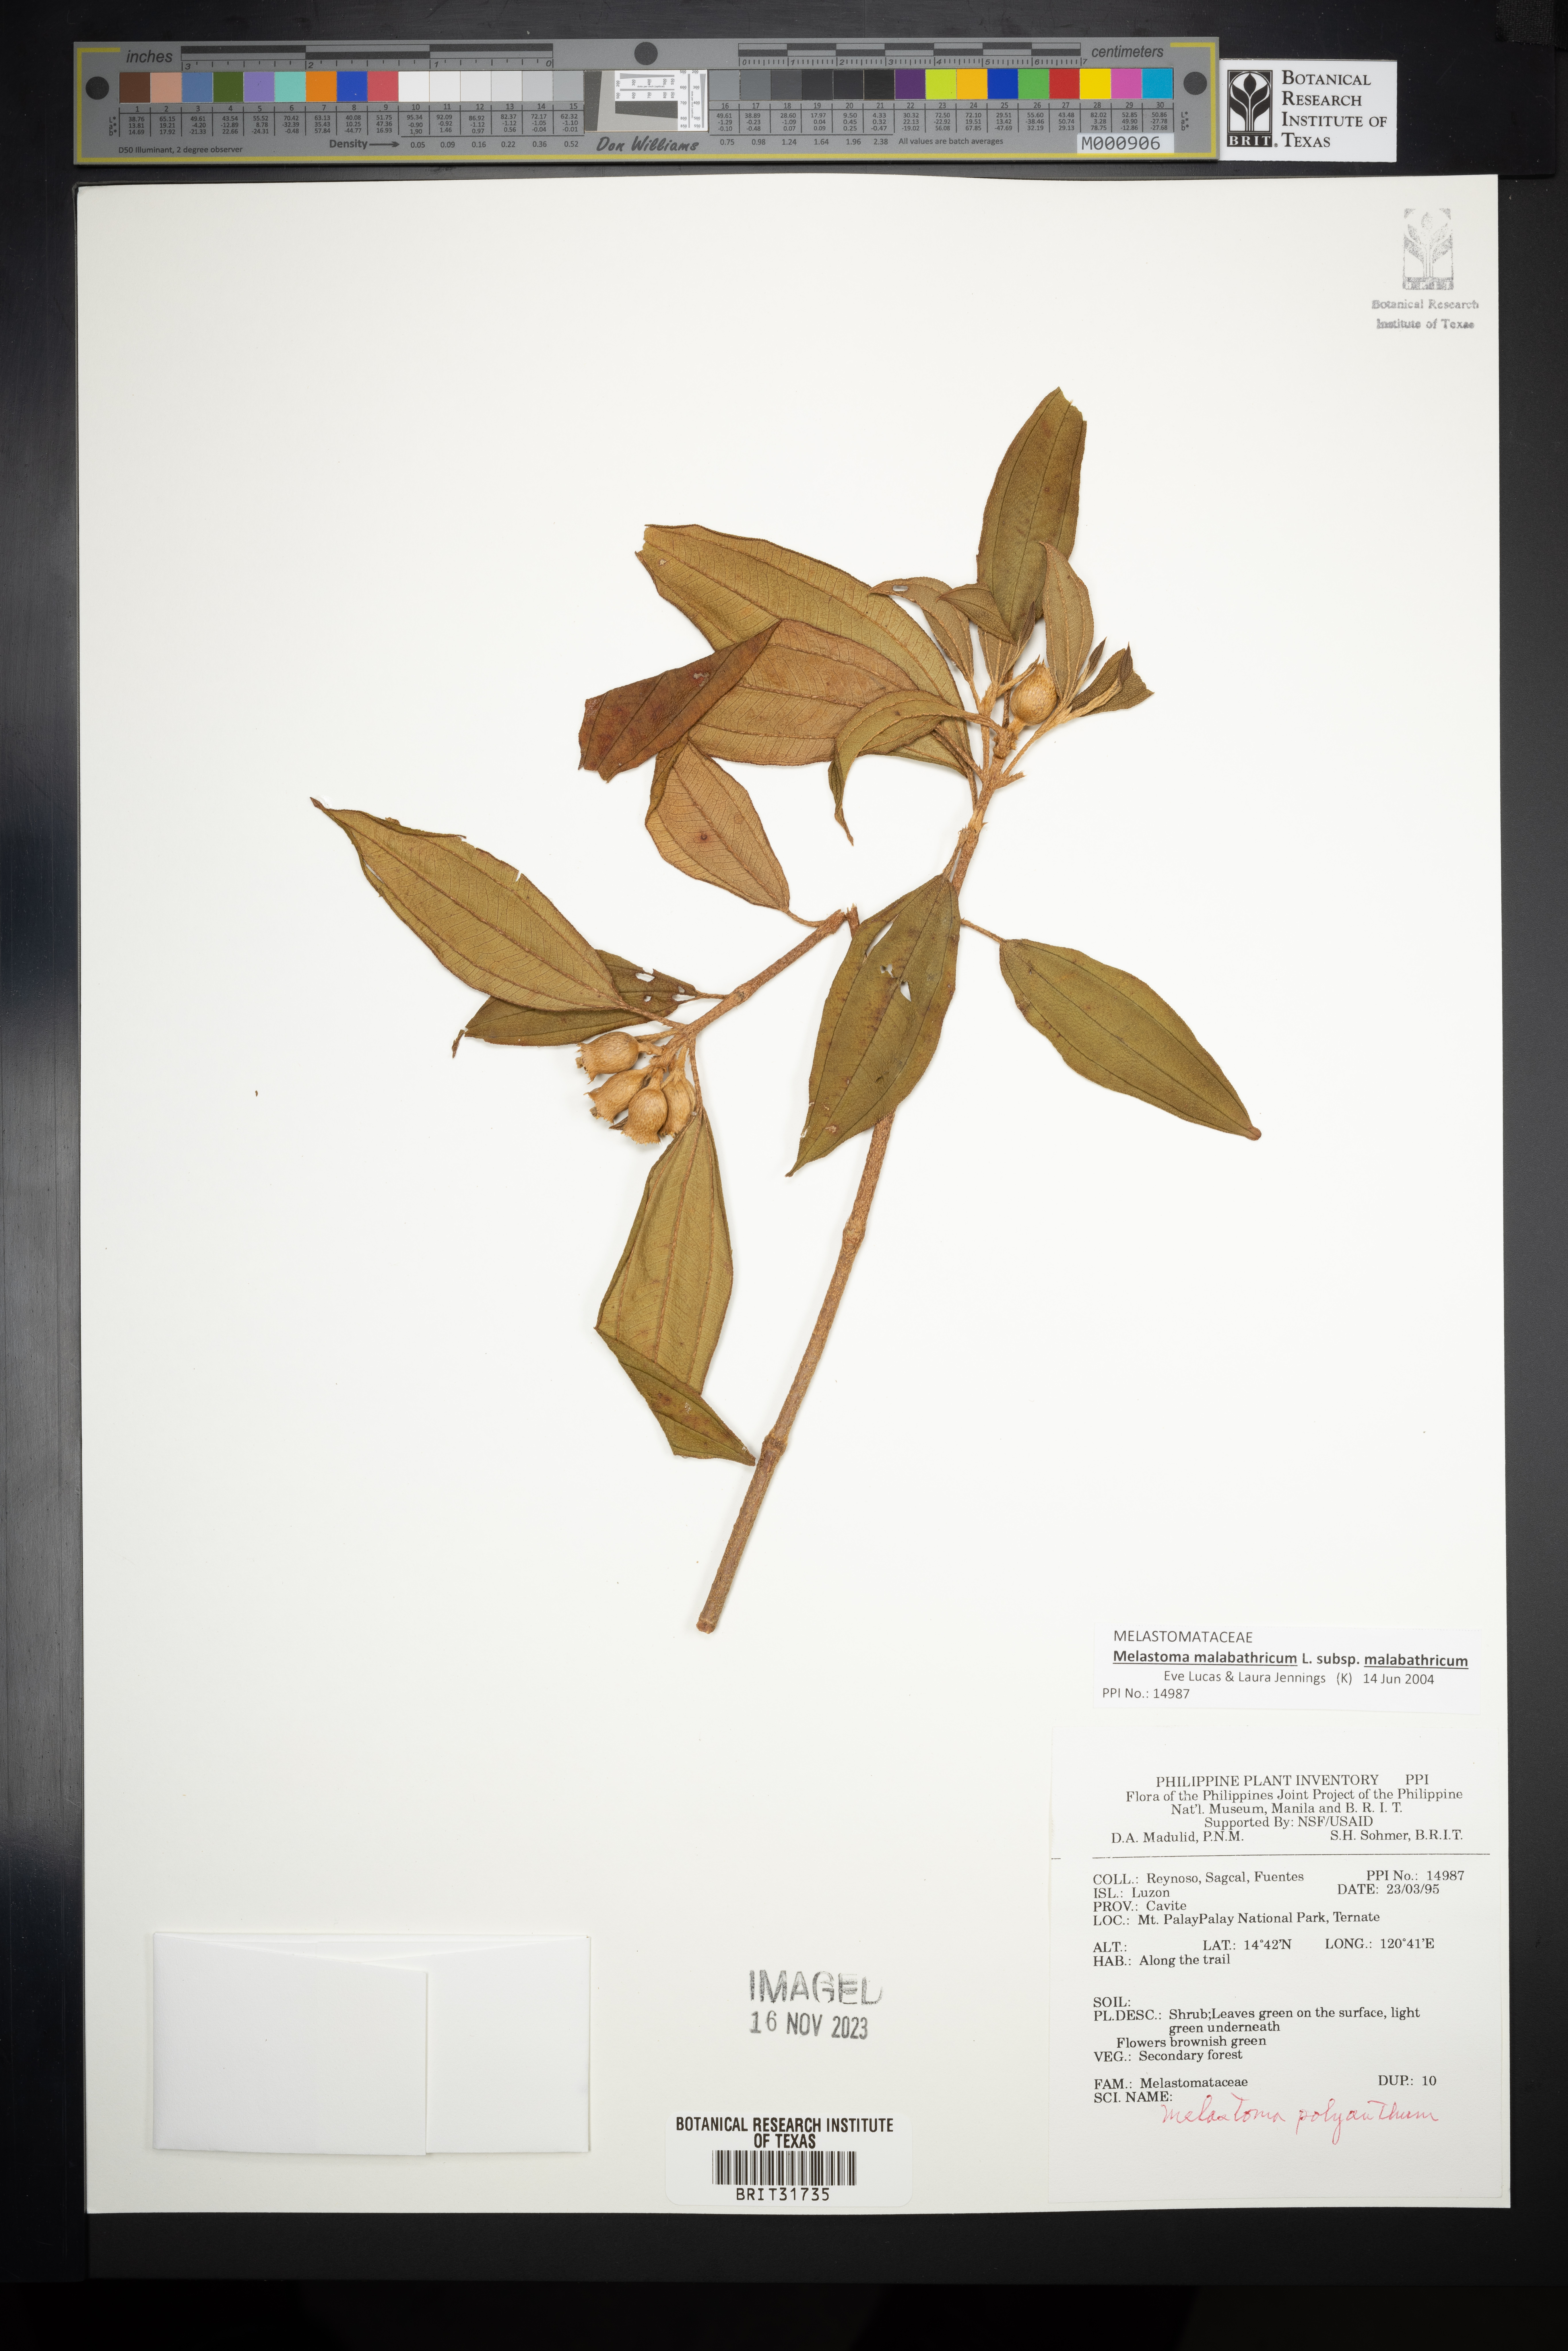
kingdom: Plantae
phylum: Tracheophyta
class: Magnoliopsida
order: Myrtales
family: Melastomataceae
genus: Melastoma
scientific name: Melastoma malabathricum
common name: Indian-rhododendron
